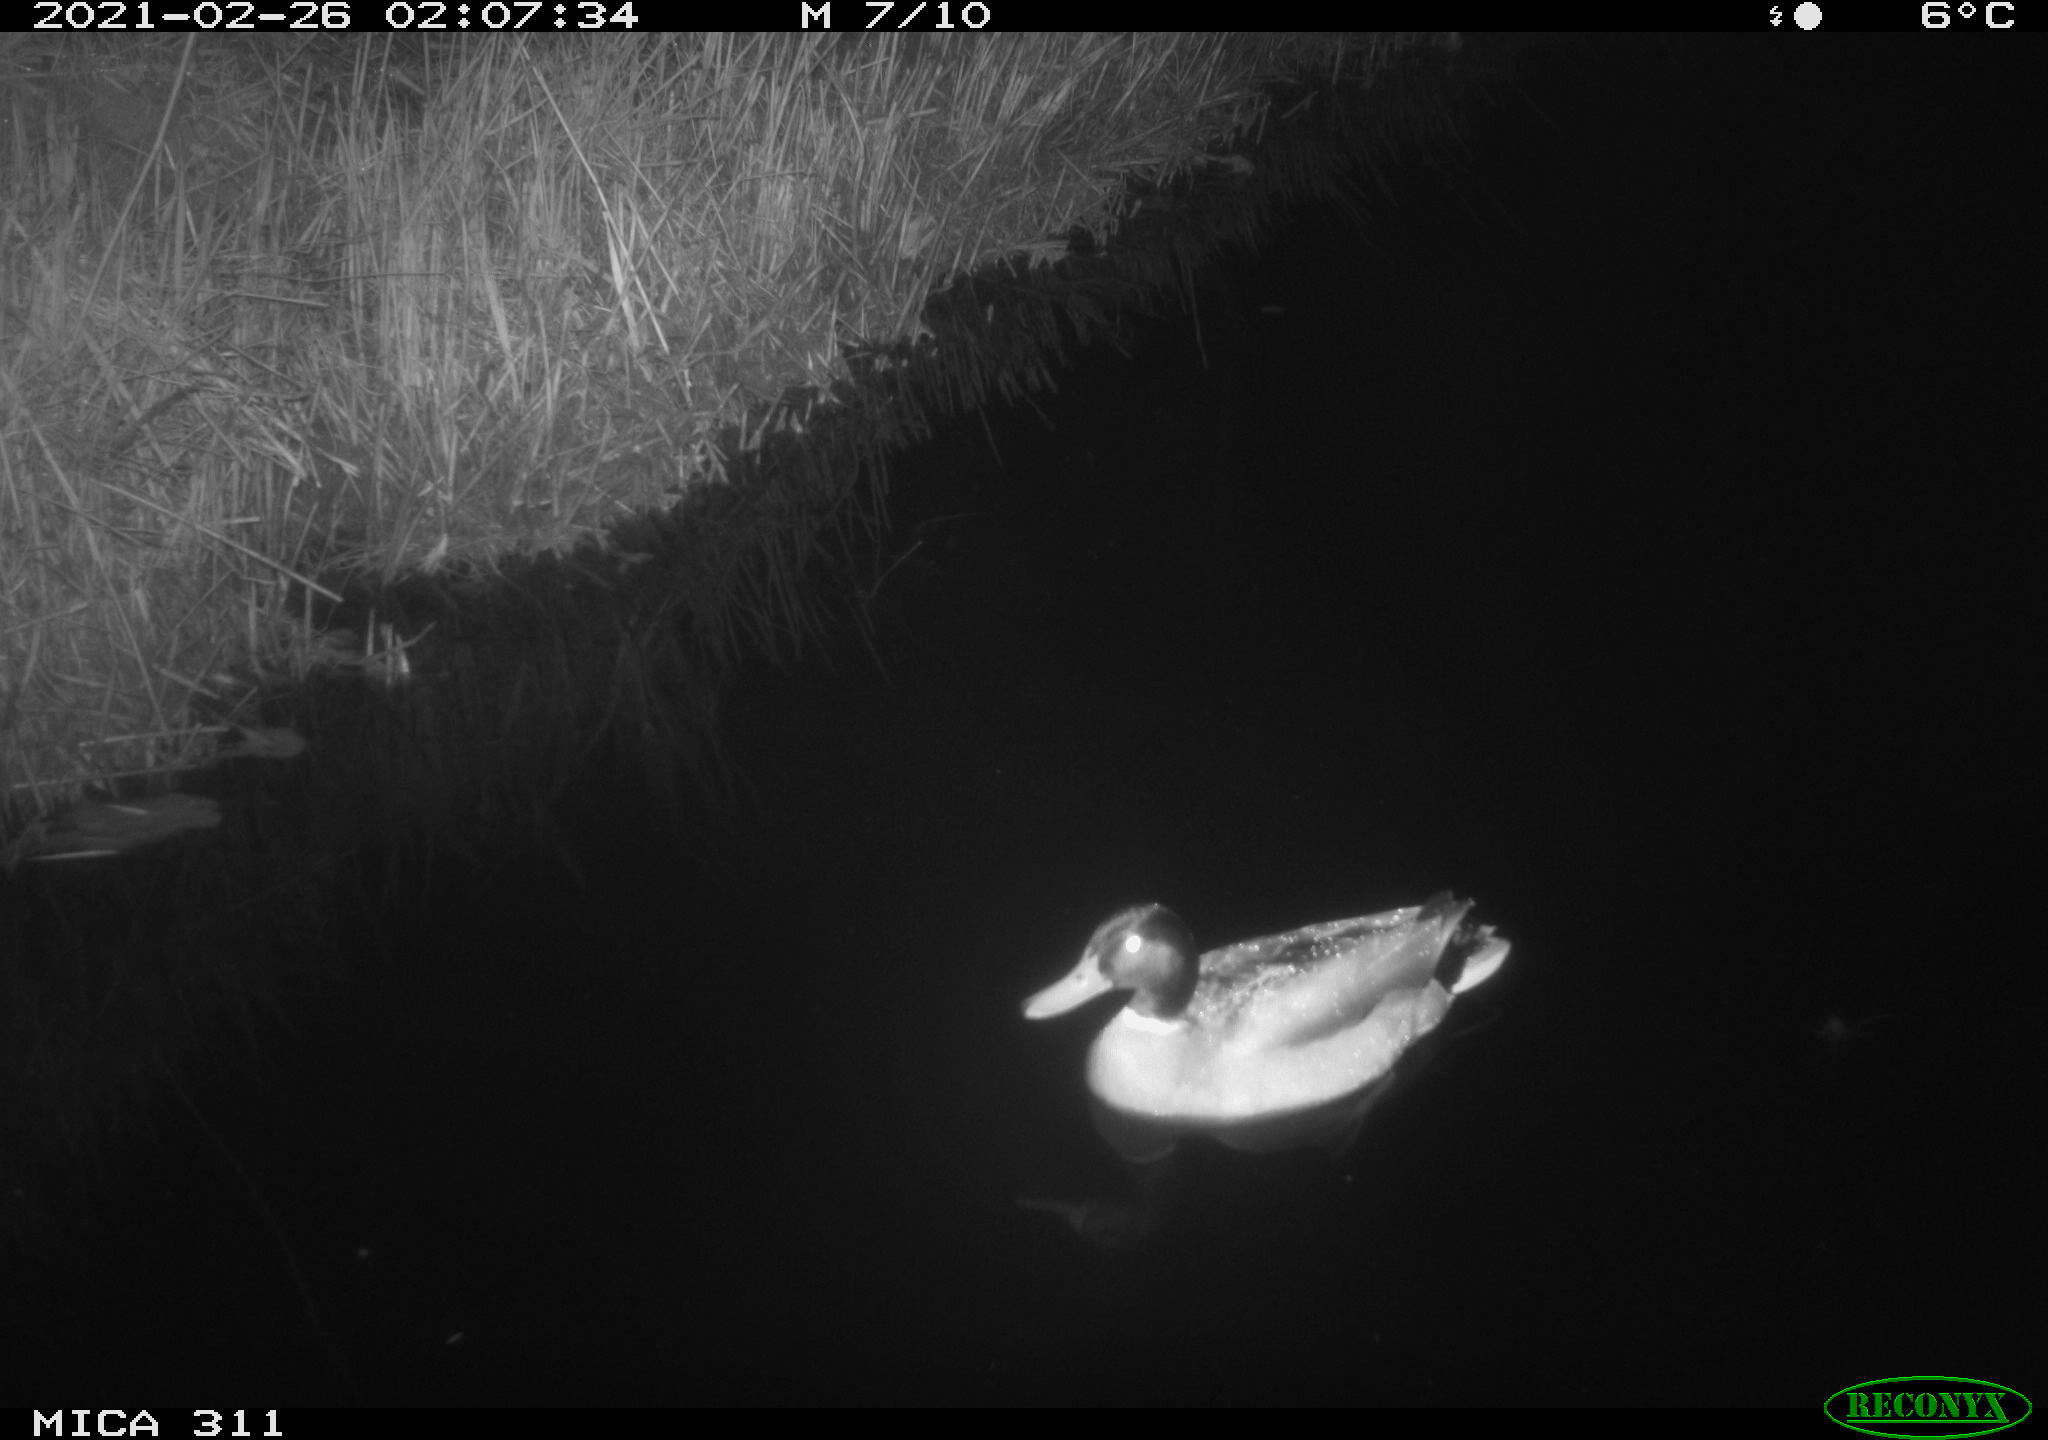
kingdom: Animalia
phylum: Chordata
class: Aves
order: Anseriformes
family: Anatidae
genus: Anas
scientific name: Anas
